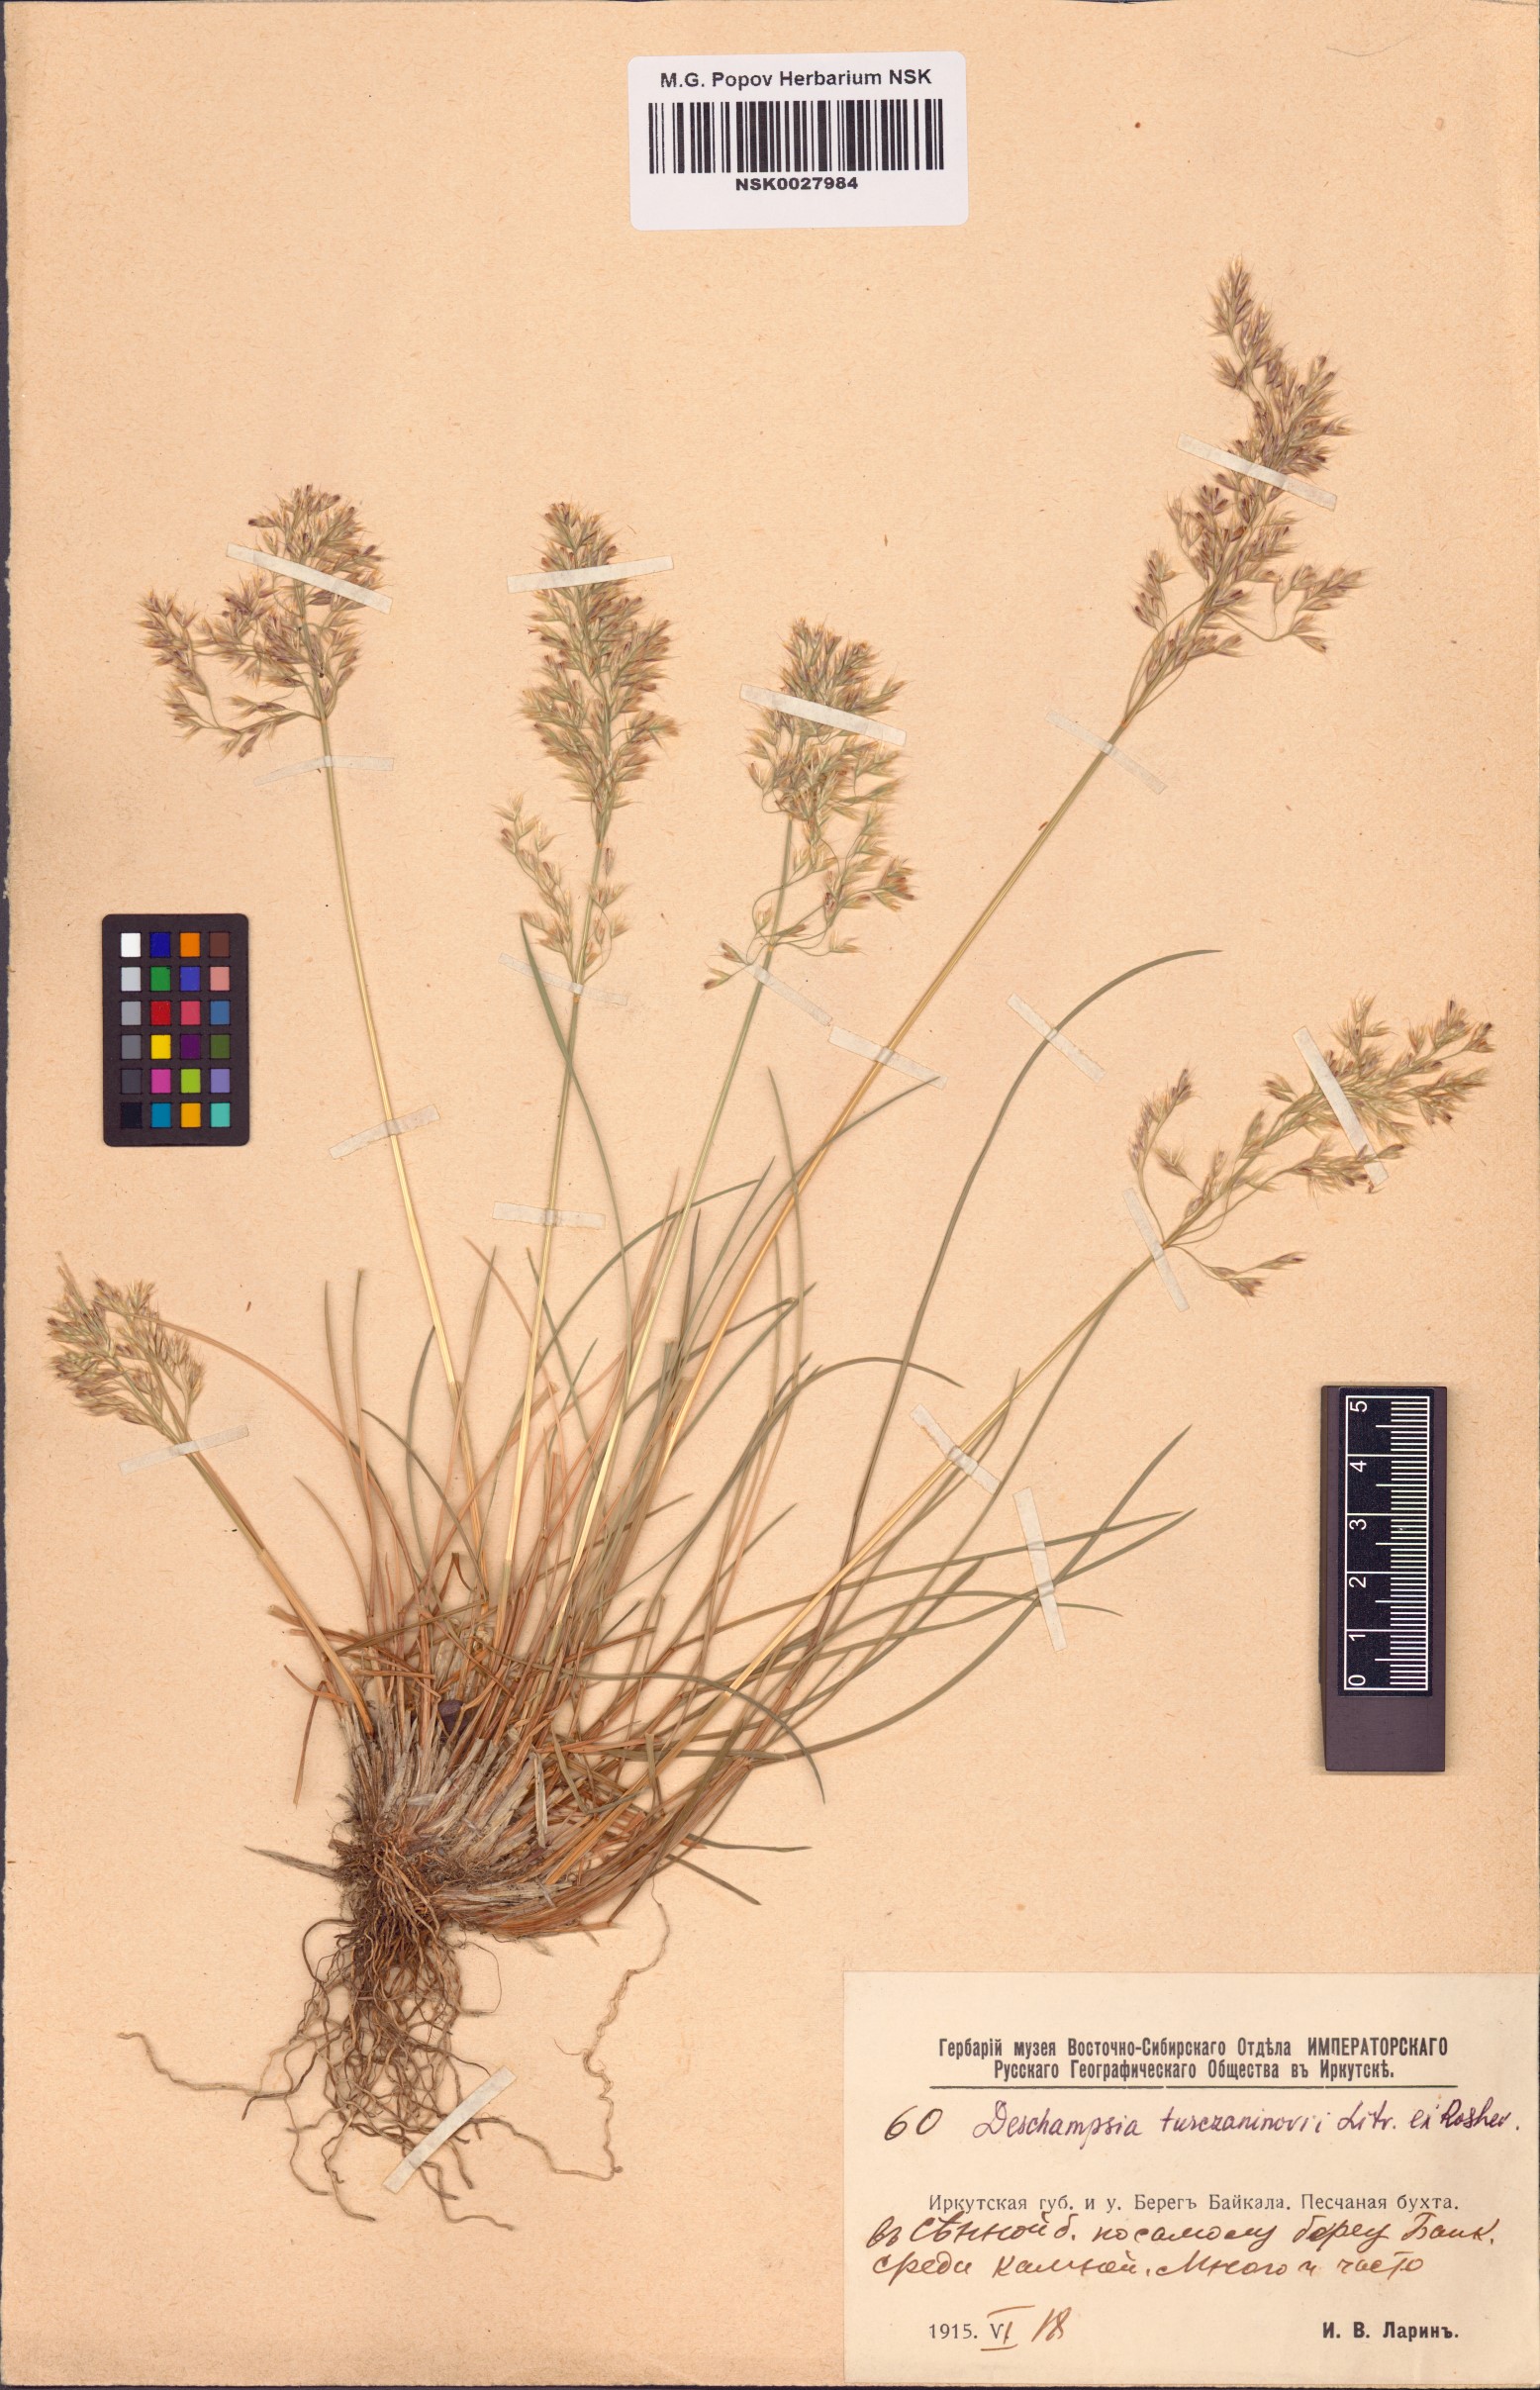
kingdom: Plantae
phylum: Tracheophyta
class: Liliopsida
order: Poales
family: Poaceae
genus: Deschampsia
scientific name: Deschampsia cespitosa
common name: Tufted hair-grass
